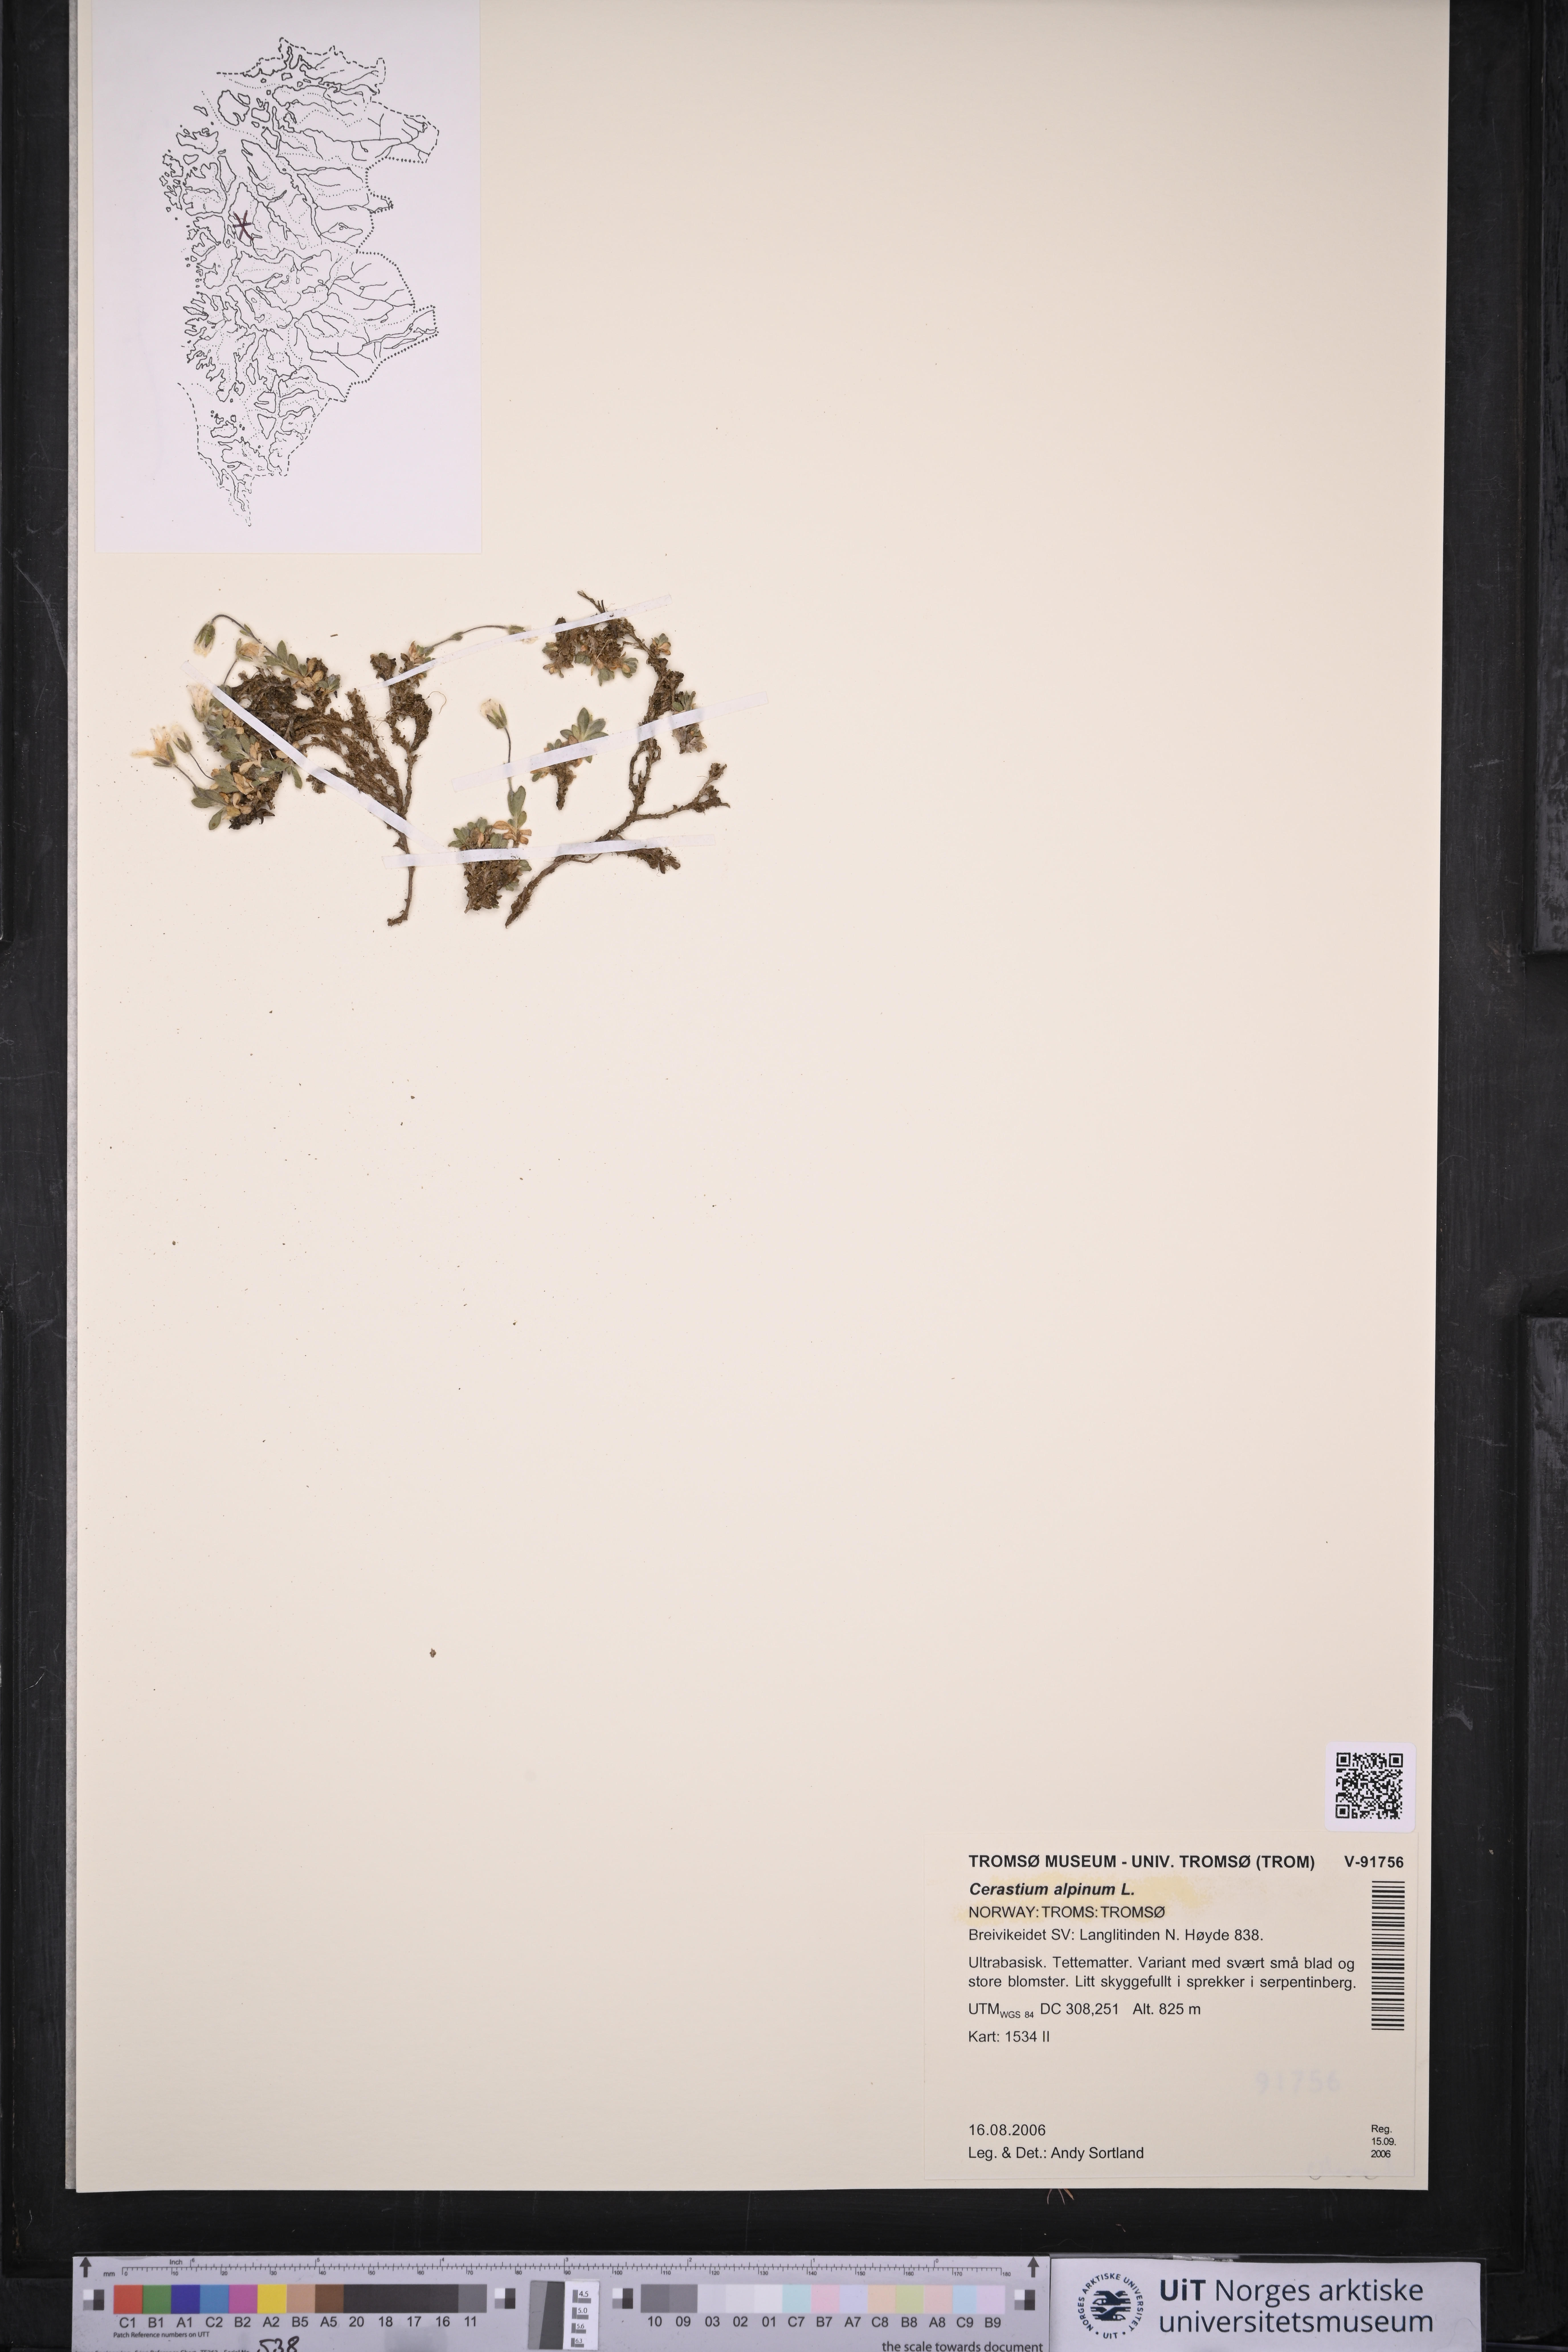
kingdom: Plantae
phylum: Tracheophyta
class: Magnoliopsida
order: Caryophyllales
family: Caryophyllaceae
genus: Cerastium
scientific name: Cerastium alpinum
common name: Alpine mouse-ear
